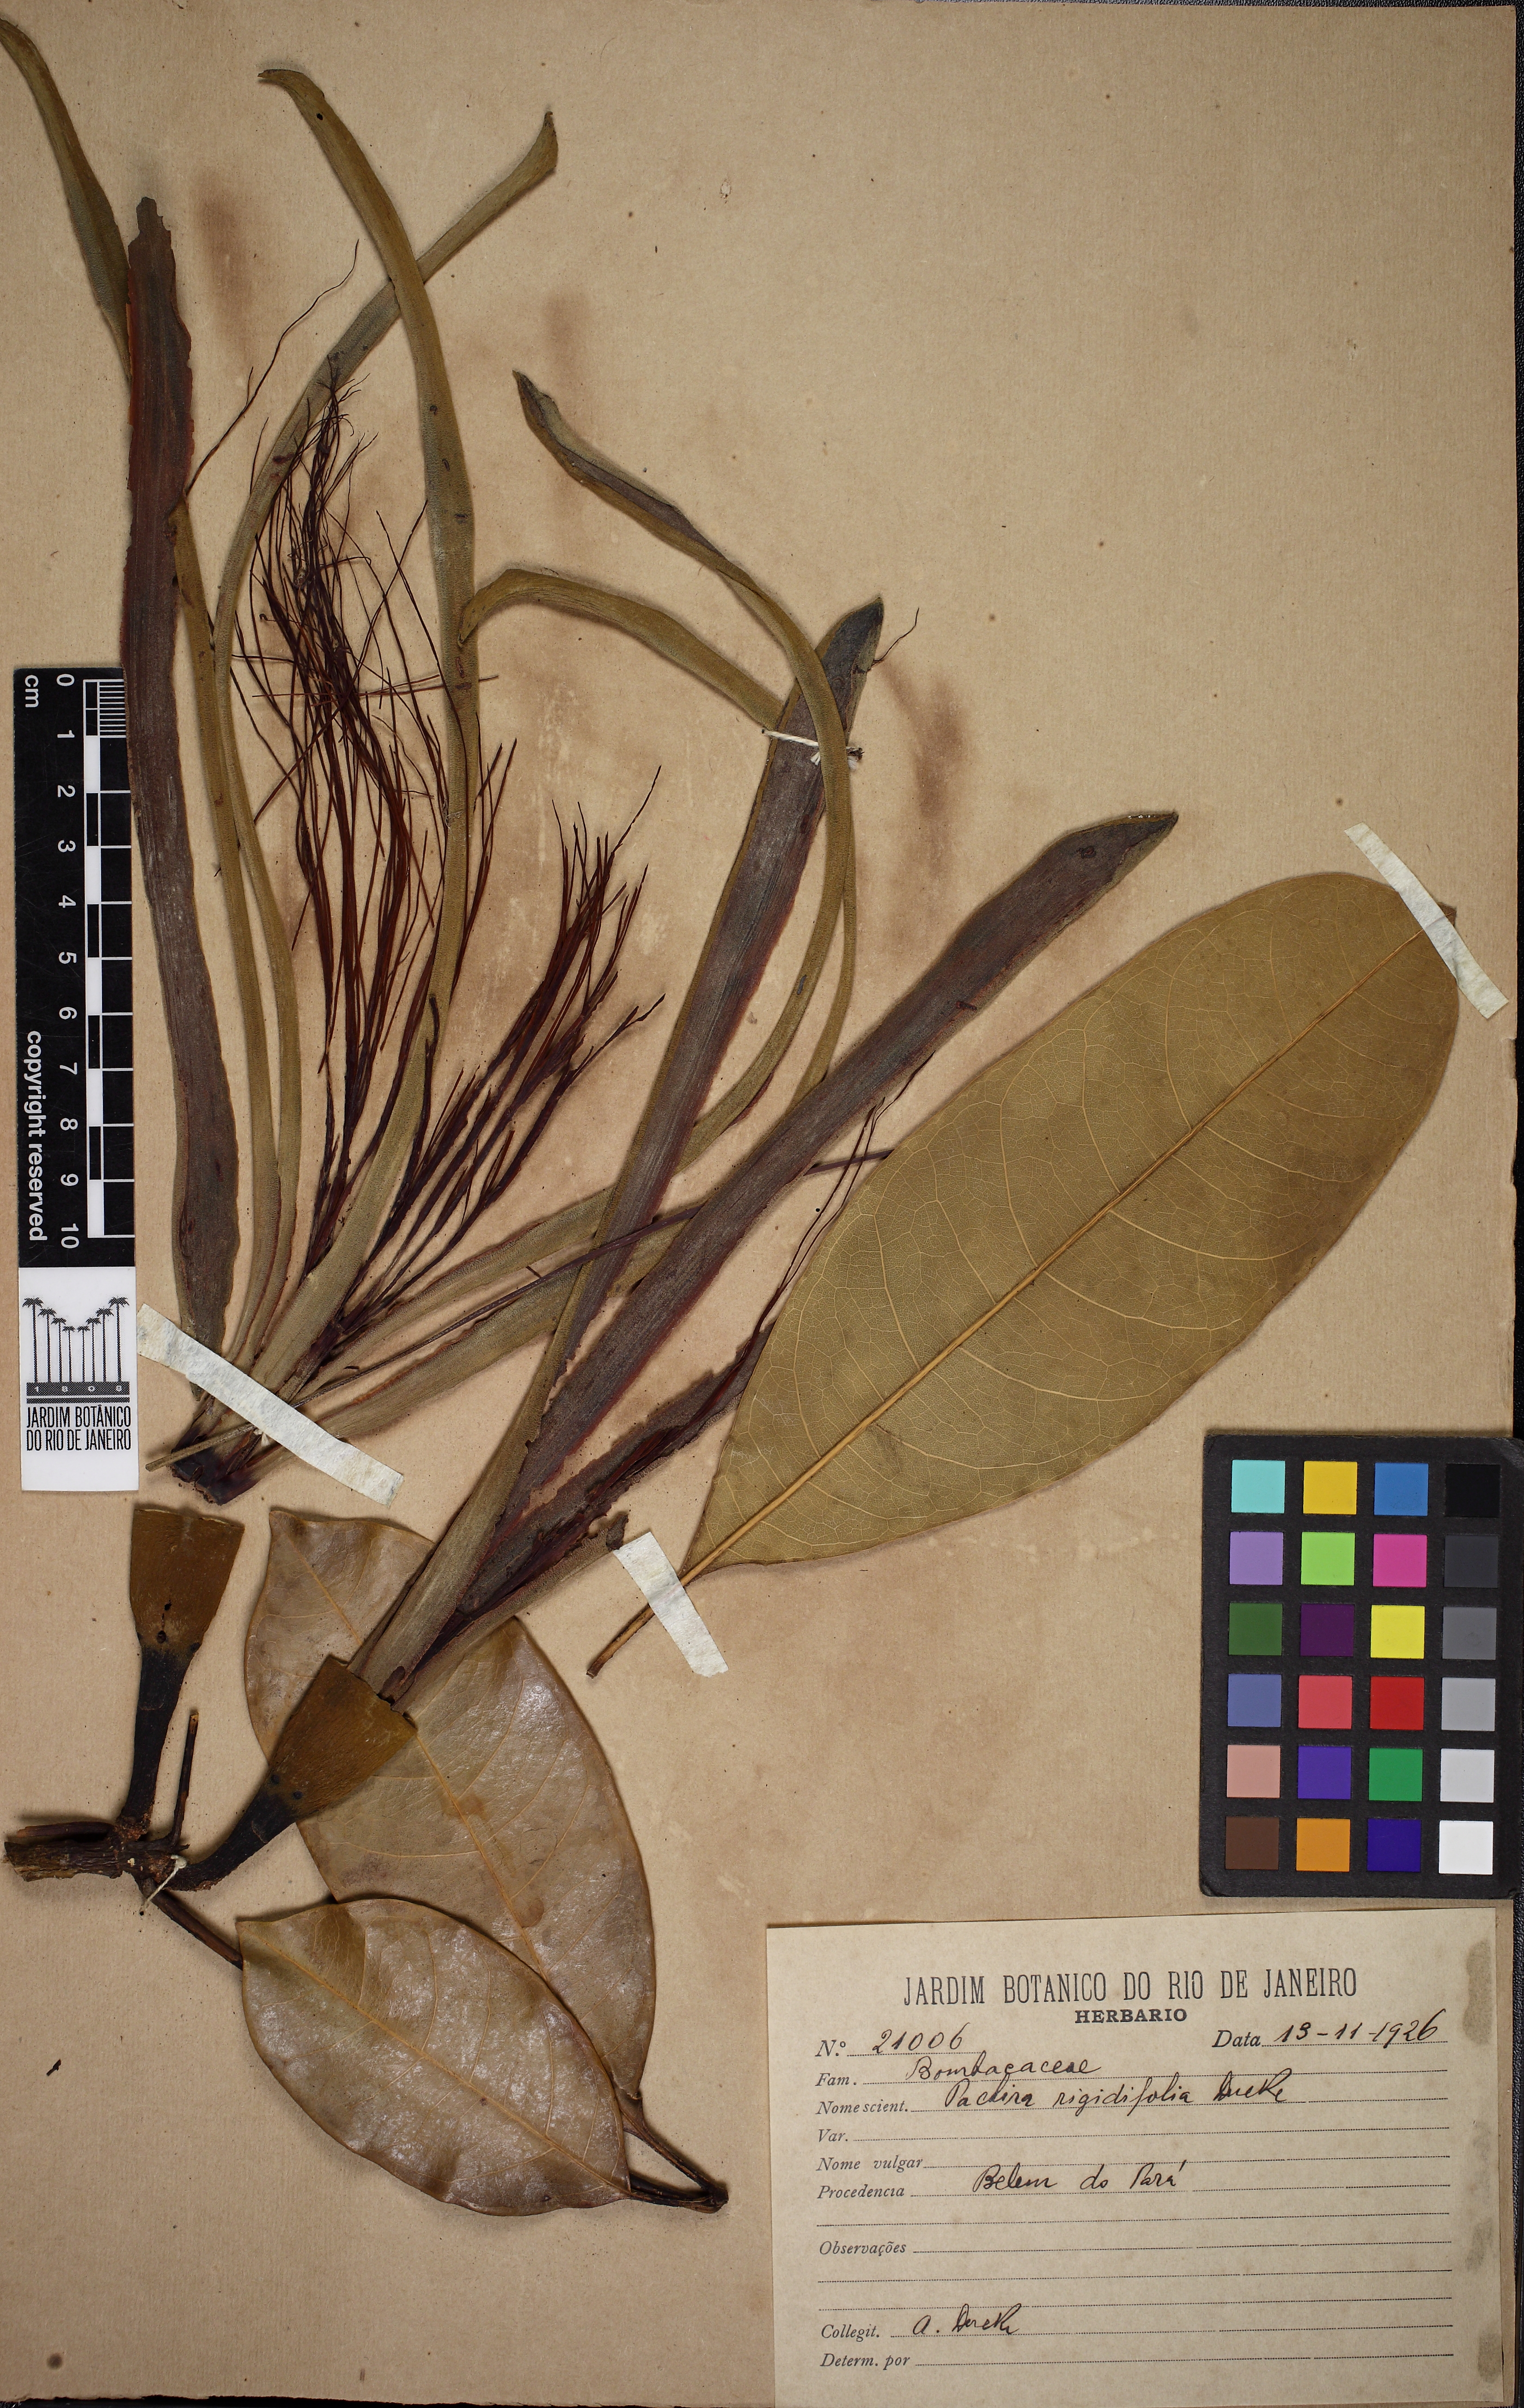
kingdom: Plantae
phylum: Tracheophyta
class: Magnoliopsida
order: Malvales
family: Malvaceae
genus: Pachira
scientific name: Pachira aquatica
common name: Provision-tree
